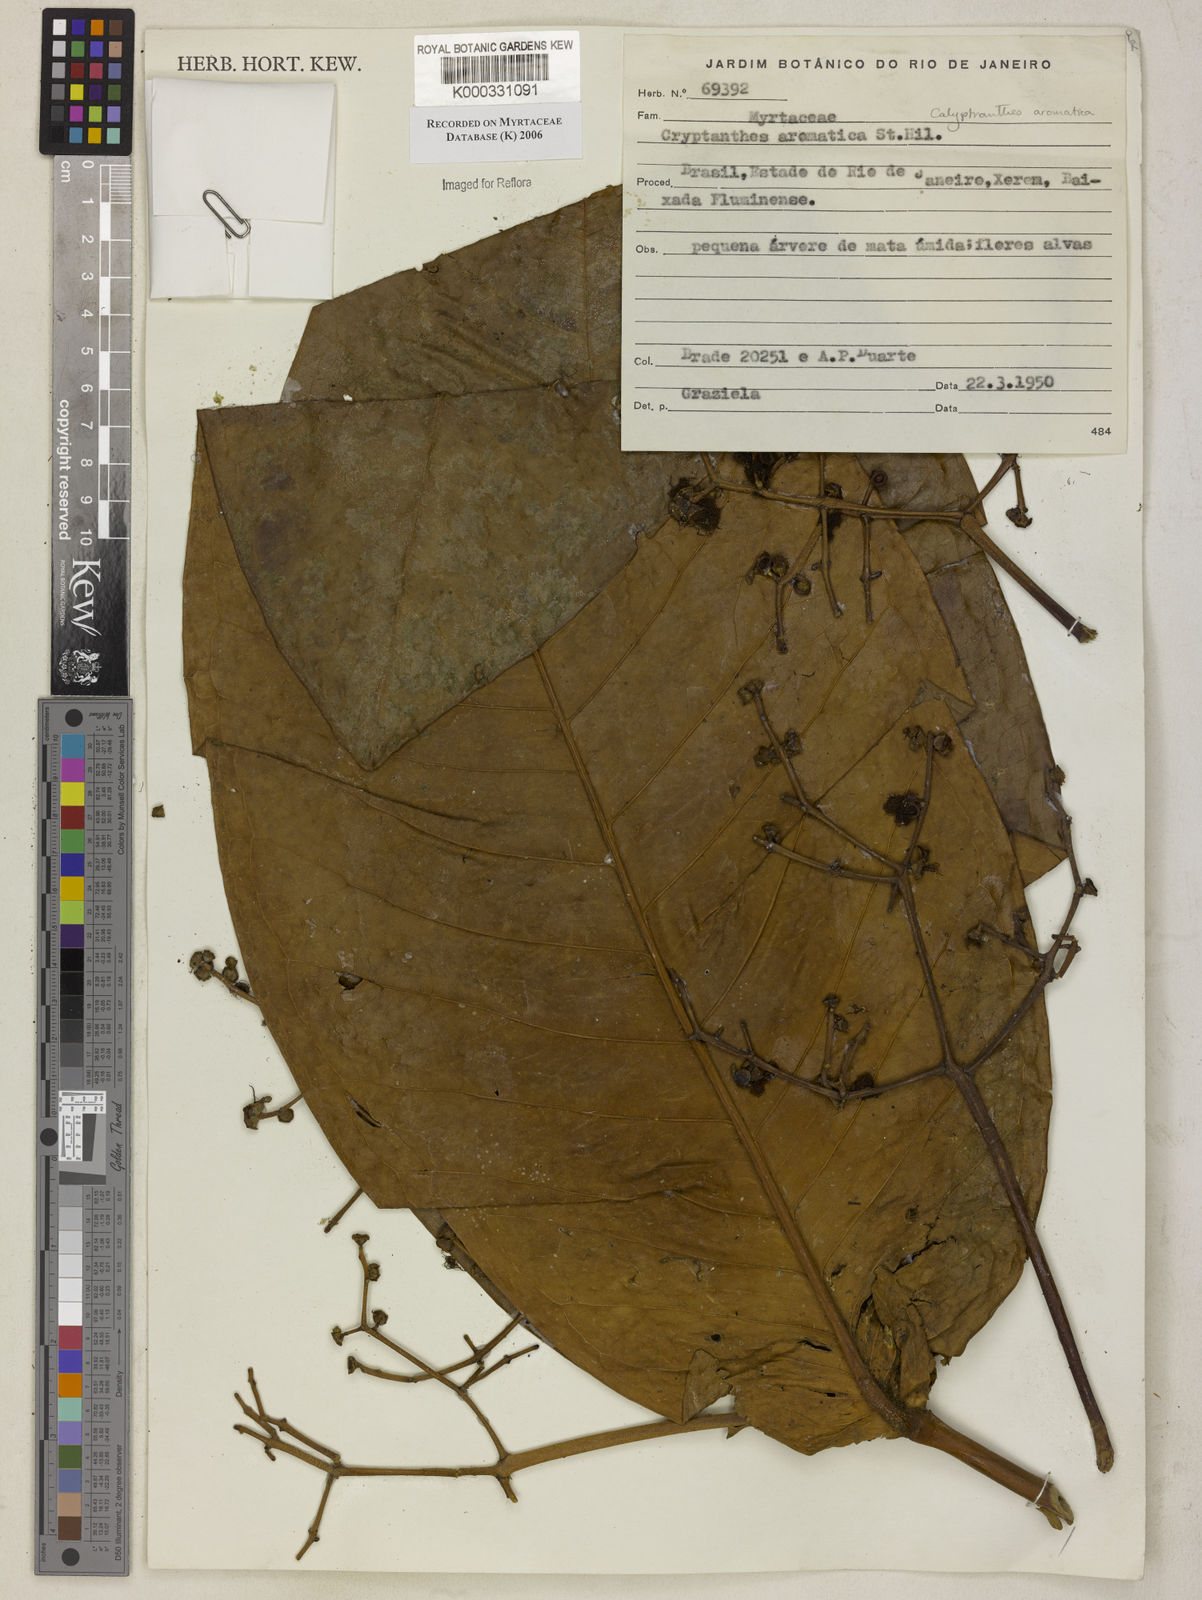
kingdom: Plantae
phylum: Tracheophyta
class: Magnoliopsida
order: Myrtales
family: Myrtaceae
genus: Myrcia
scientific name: Myrcia carioca
